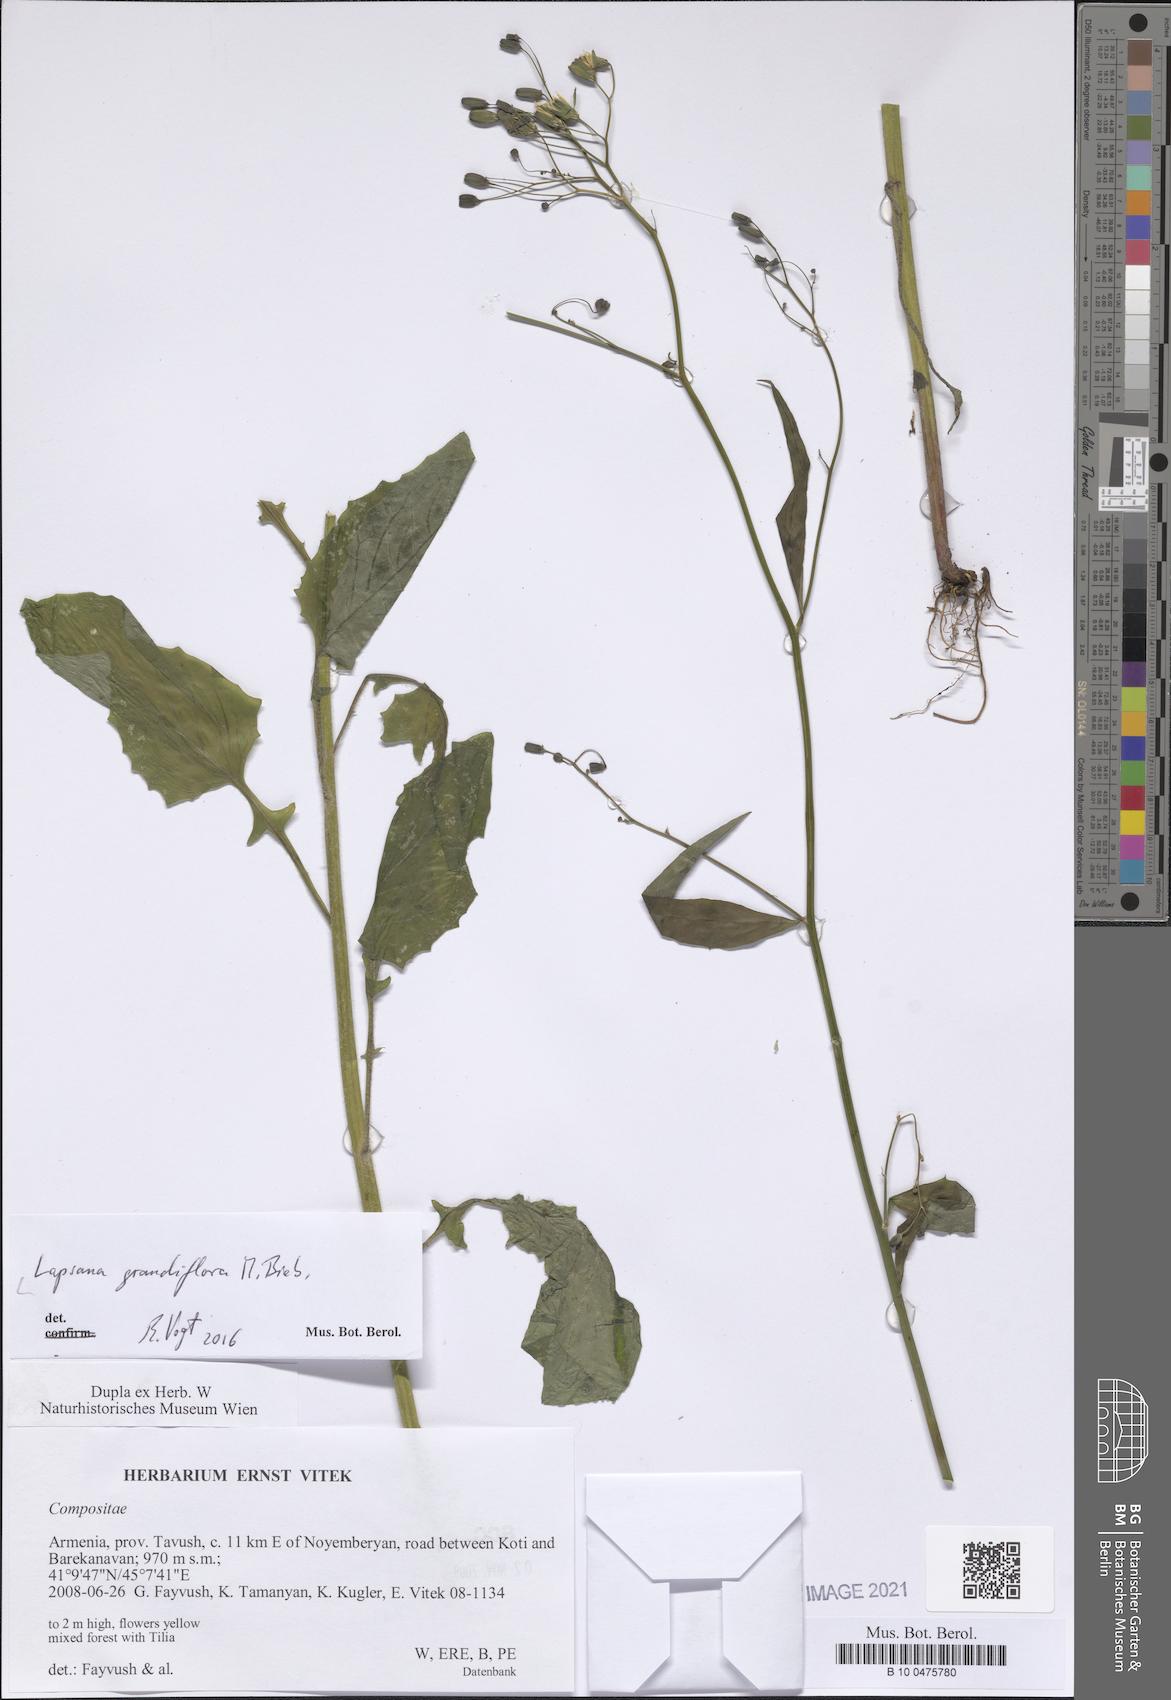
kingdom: Plantae
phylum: Tracheophyta
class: Magnoliopsida
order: Asterales
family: Asteraceae
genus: Lapsana
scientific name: Lapsana communis
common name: Nipplewort
